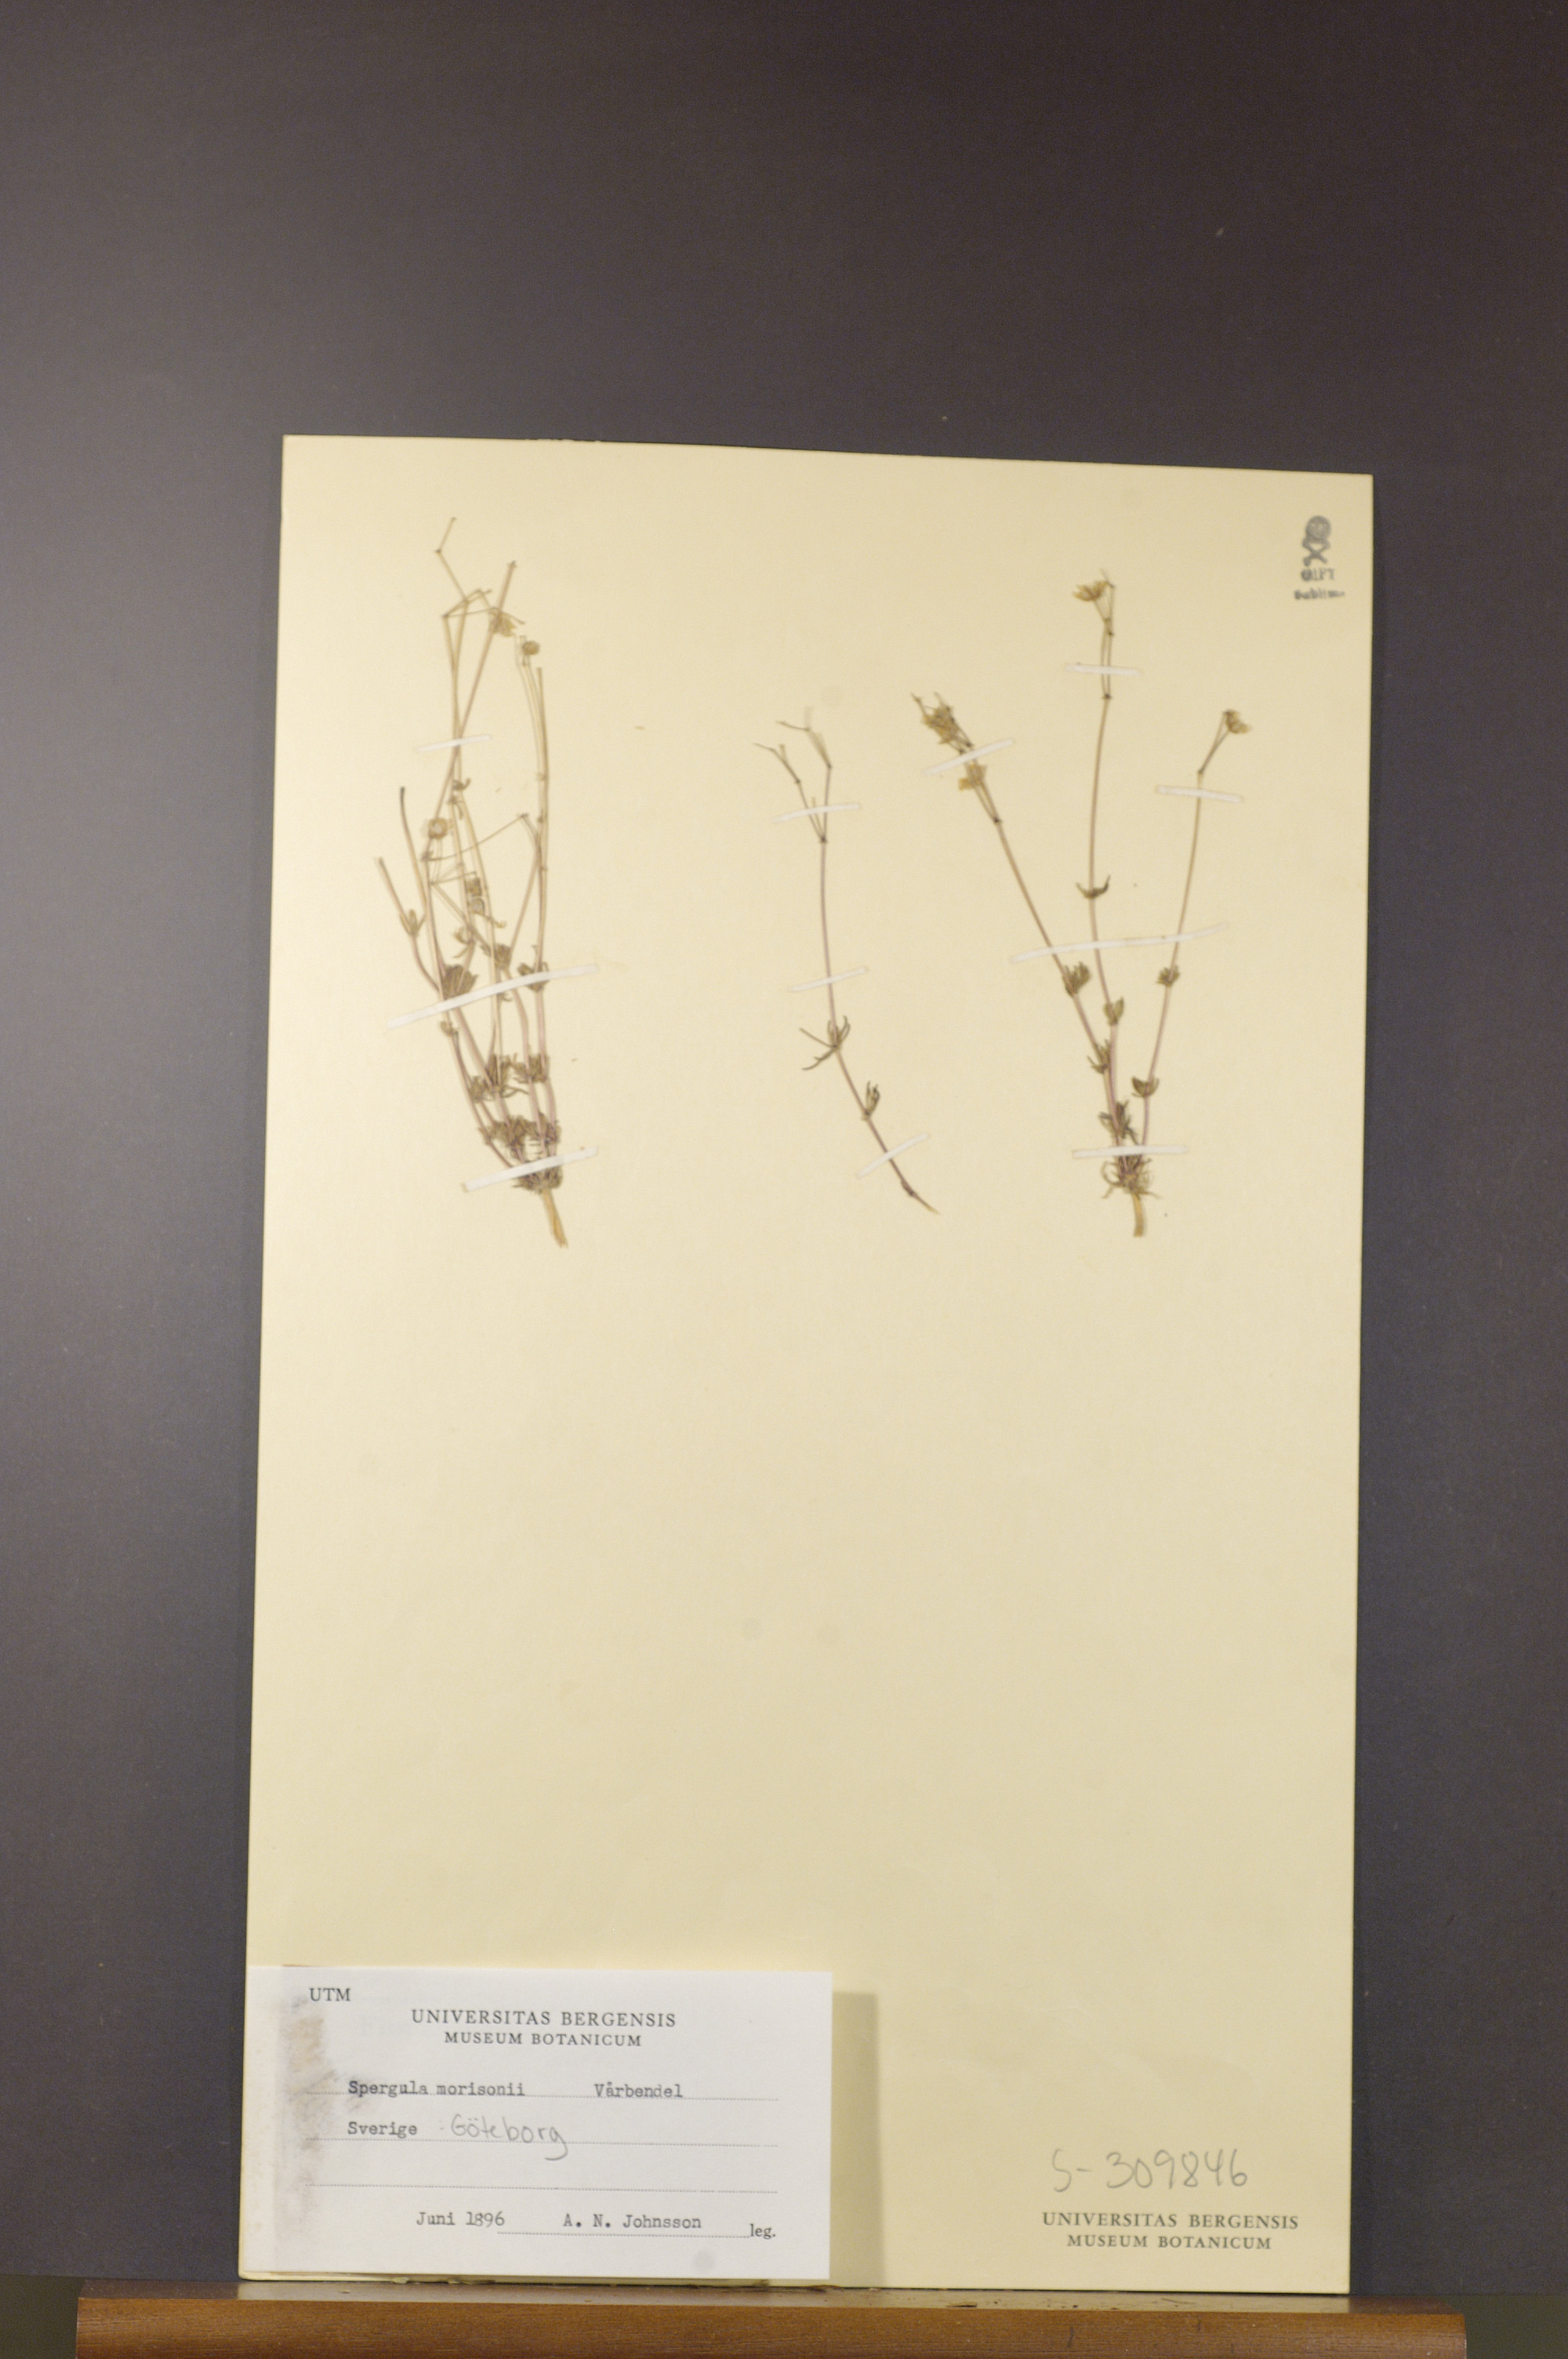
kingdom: Plantae
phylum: Tracheophyta
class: Magnoliopsida
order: Caryophyllales
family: Caryophyllaceae
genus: Spergula
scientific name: Spergula morisonii
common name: Pearlwort spurrey
